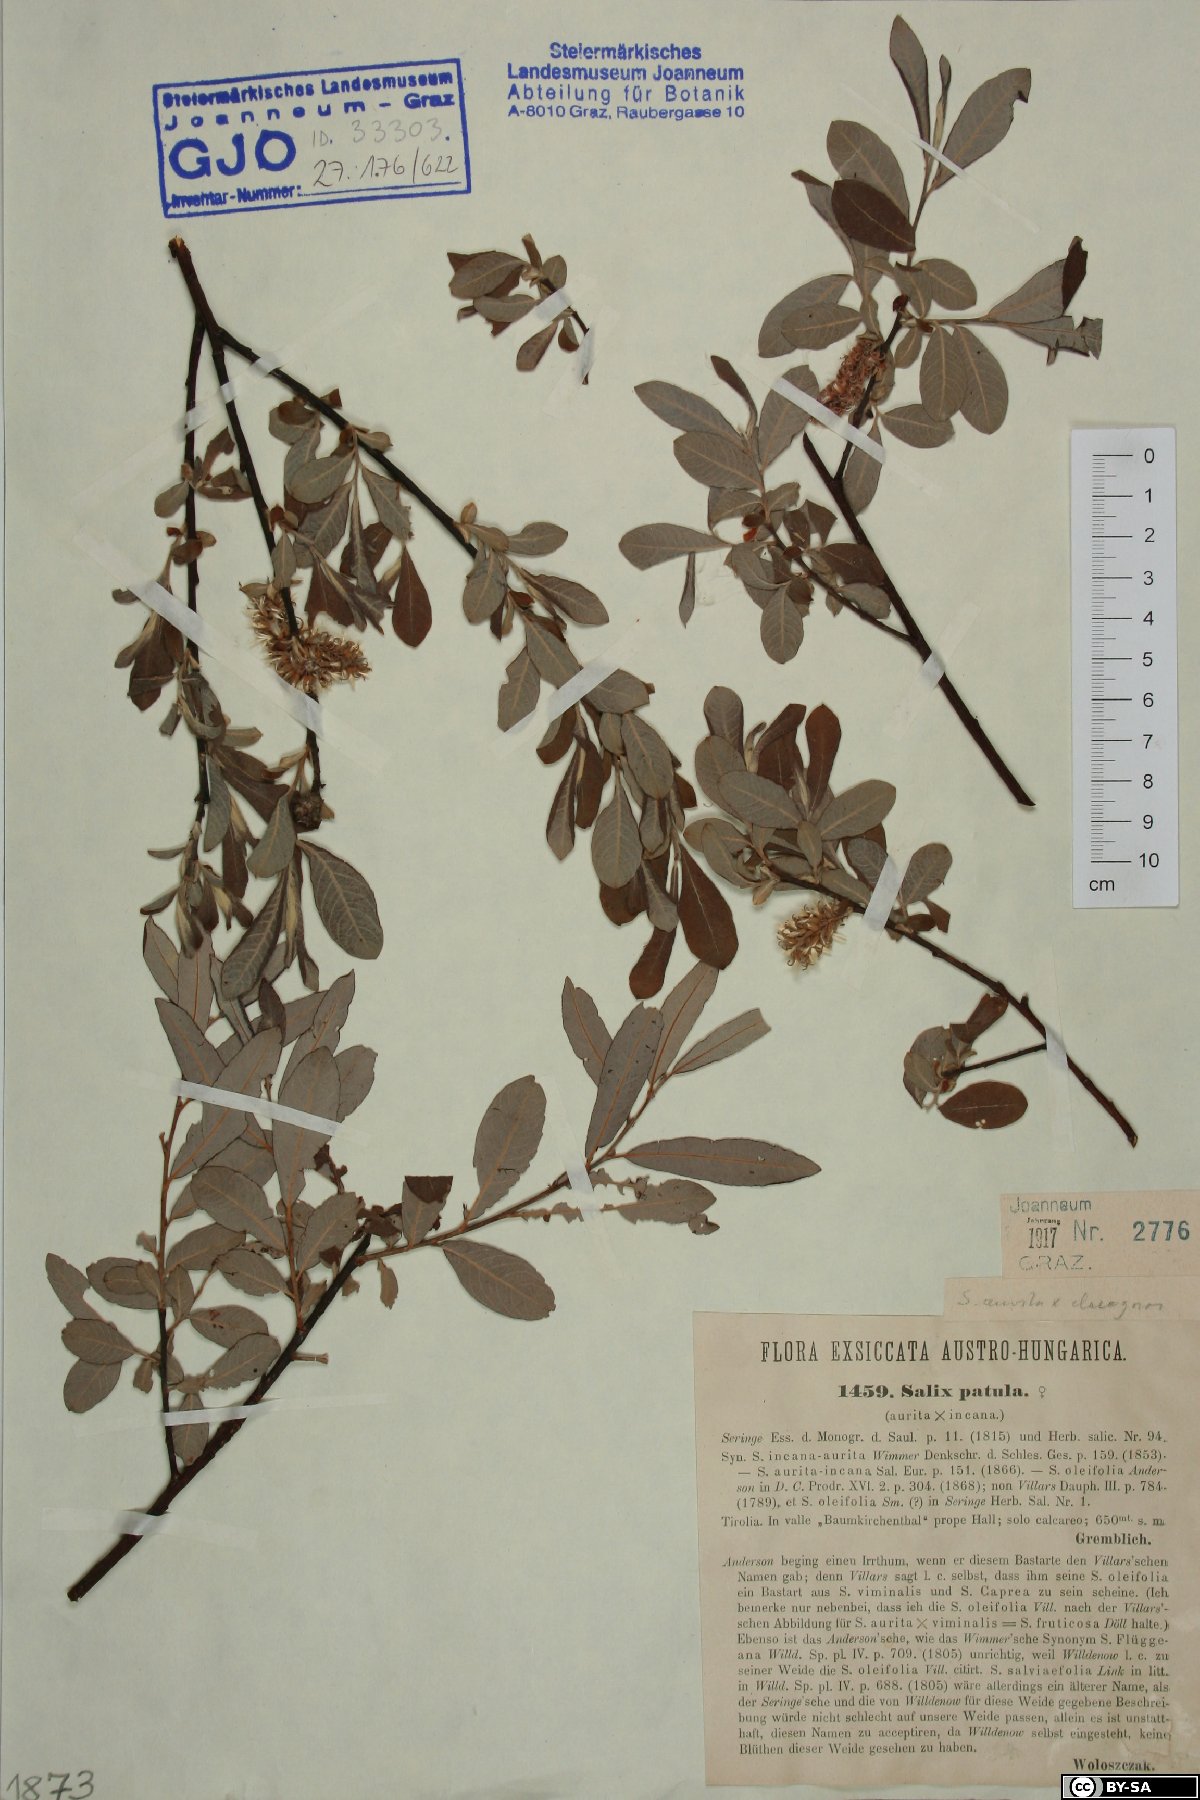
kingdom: Plantae
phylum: Tracheophyta
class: Magnoliopsida
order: Malpighiales
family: Salicaceae
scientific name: Salicaceae
